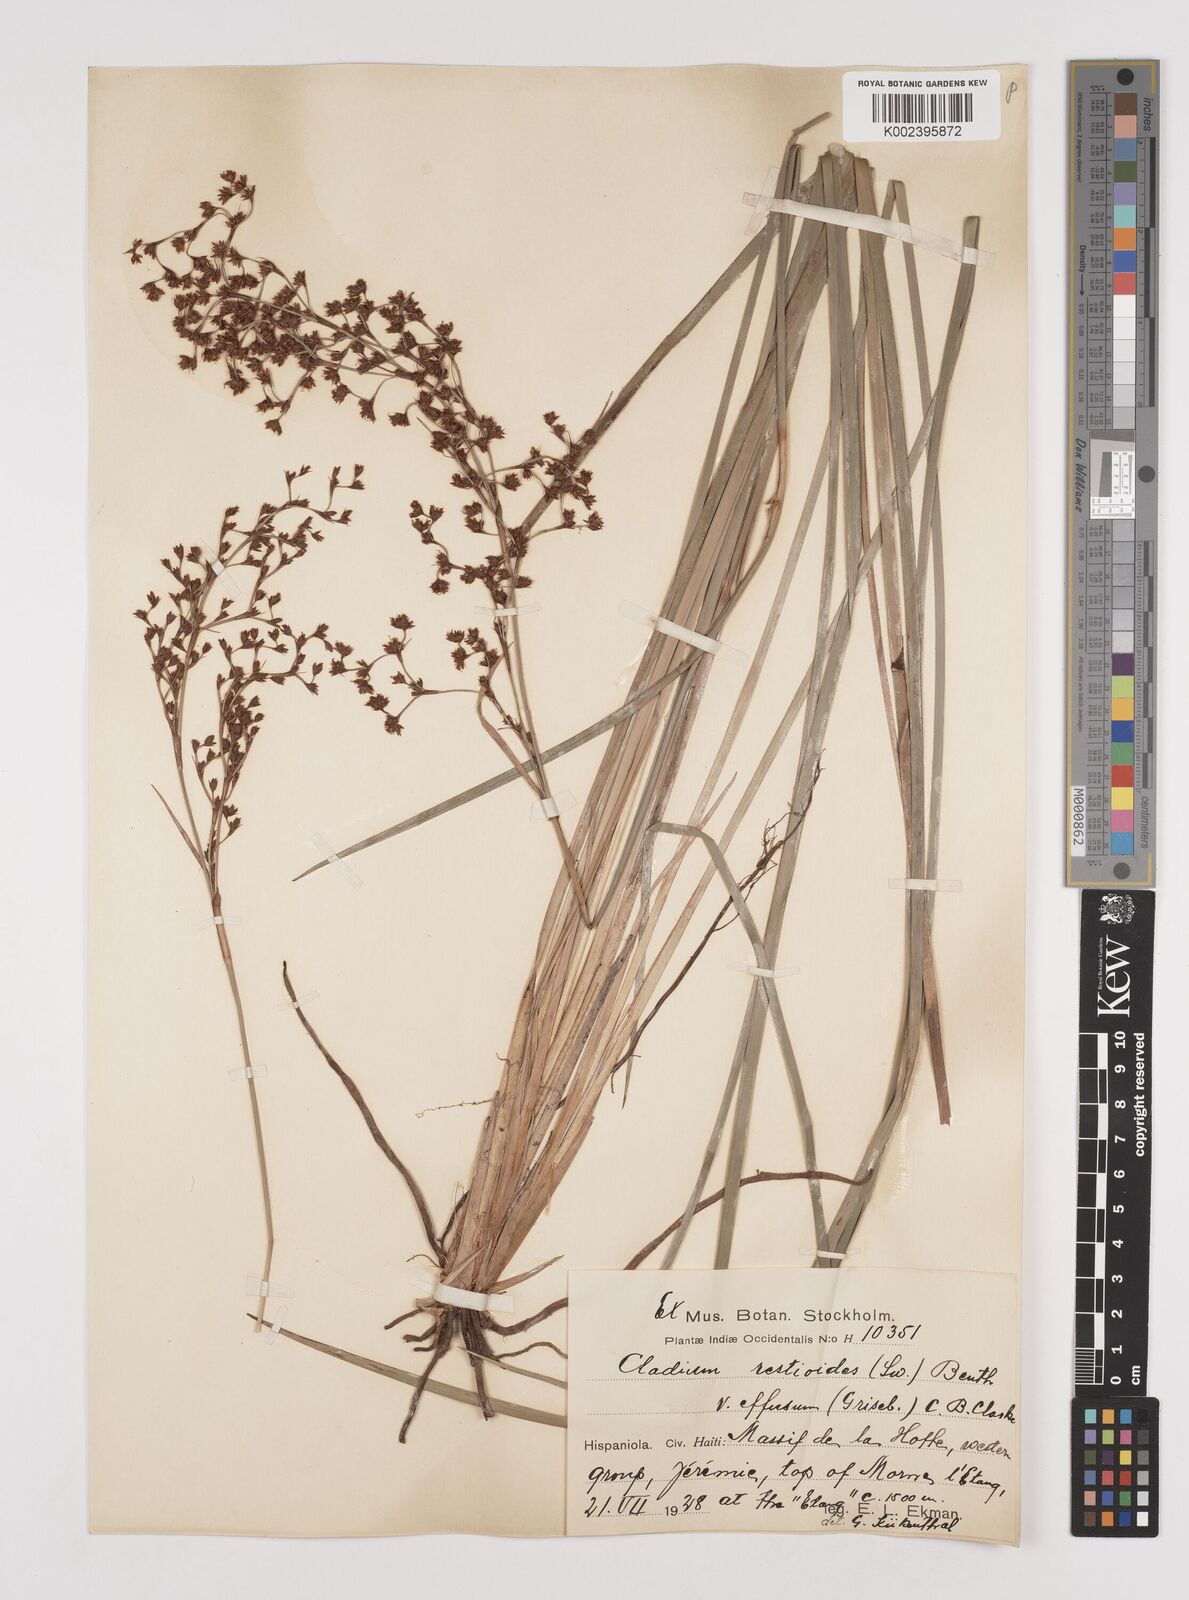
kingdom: Plantae
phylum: Tracheophyta
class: Liliopsida
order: Poales
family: Cyperaceae
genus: Machaerina
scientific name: Machaerina restioides
